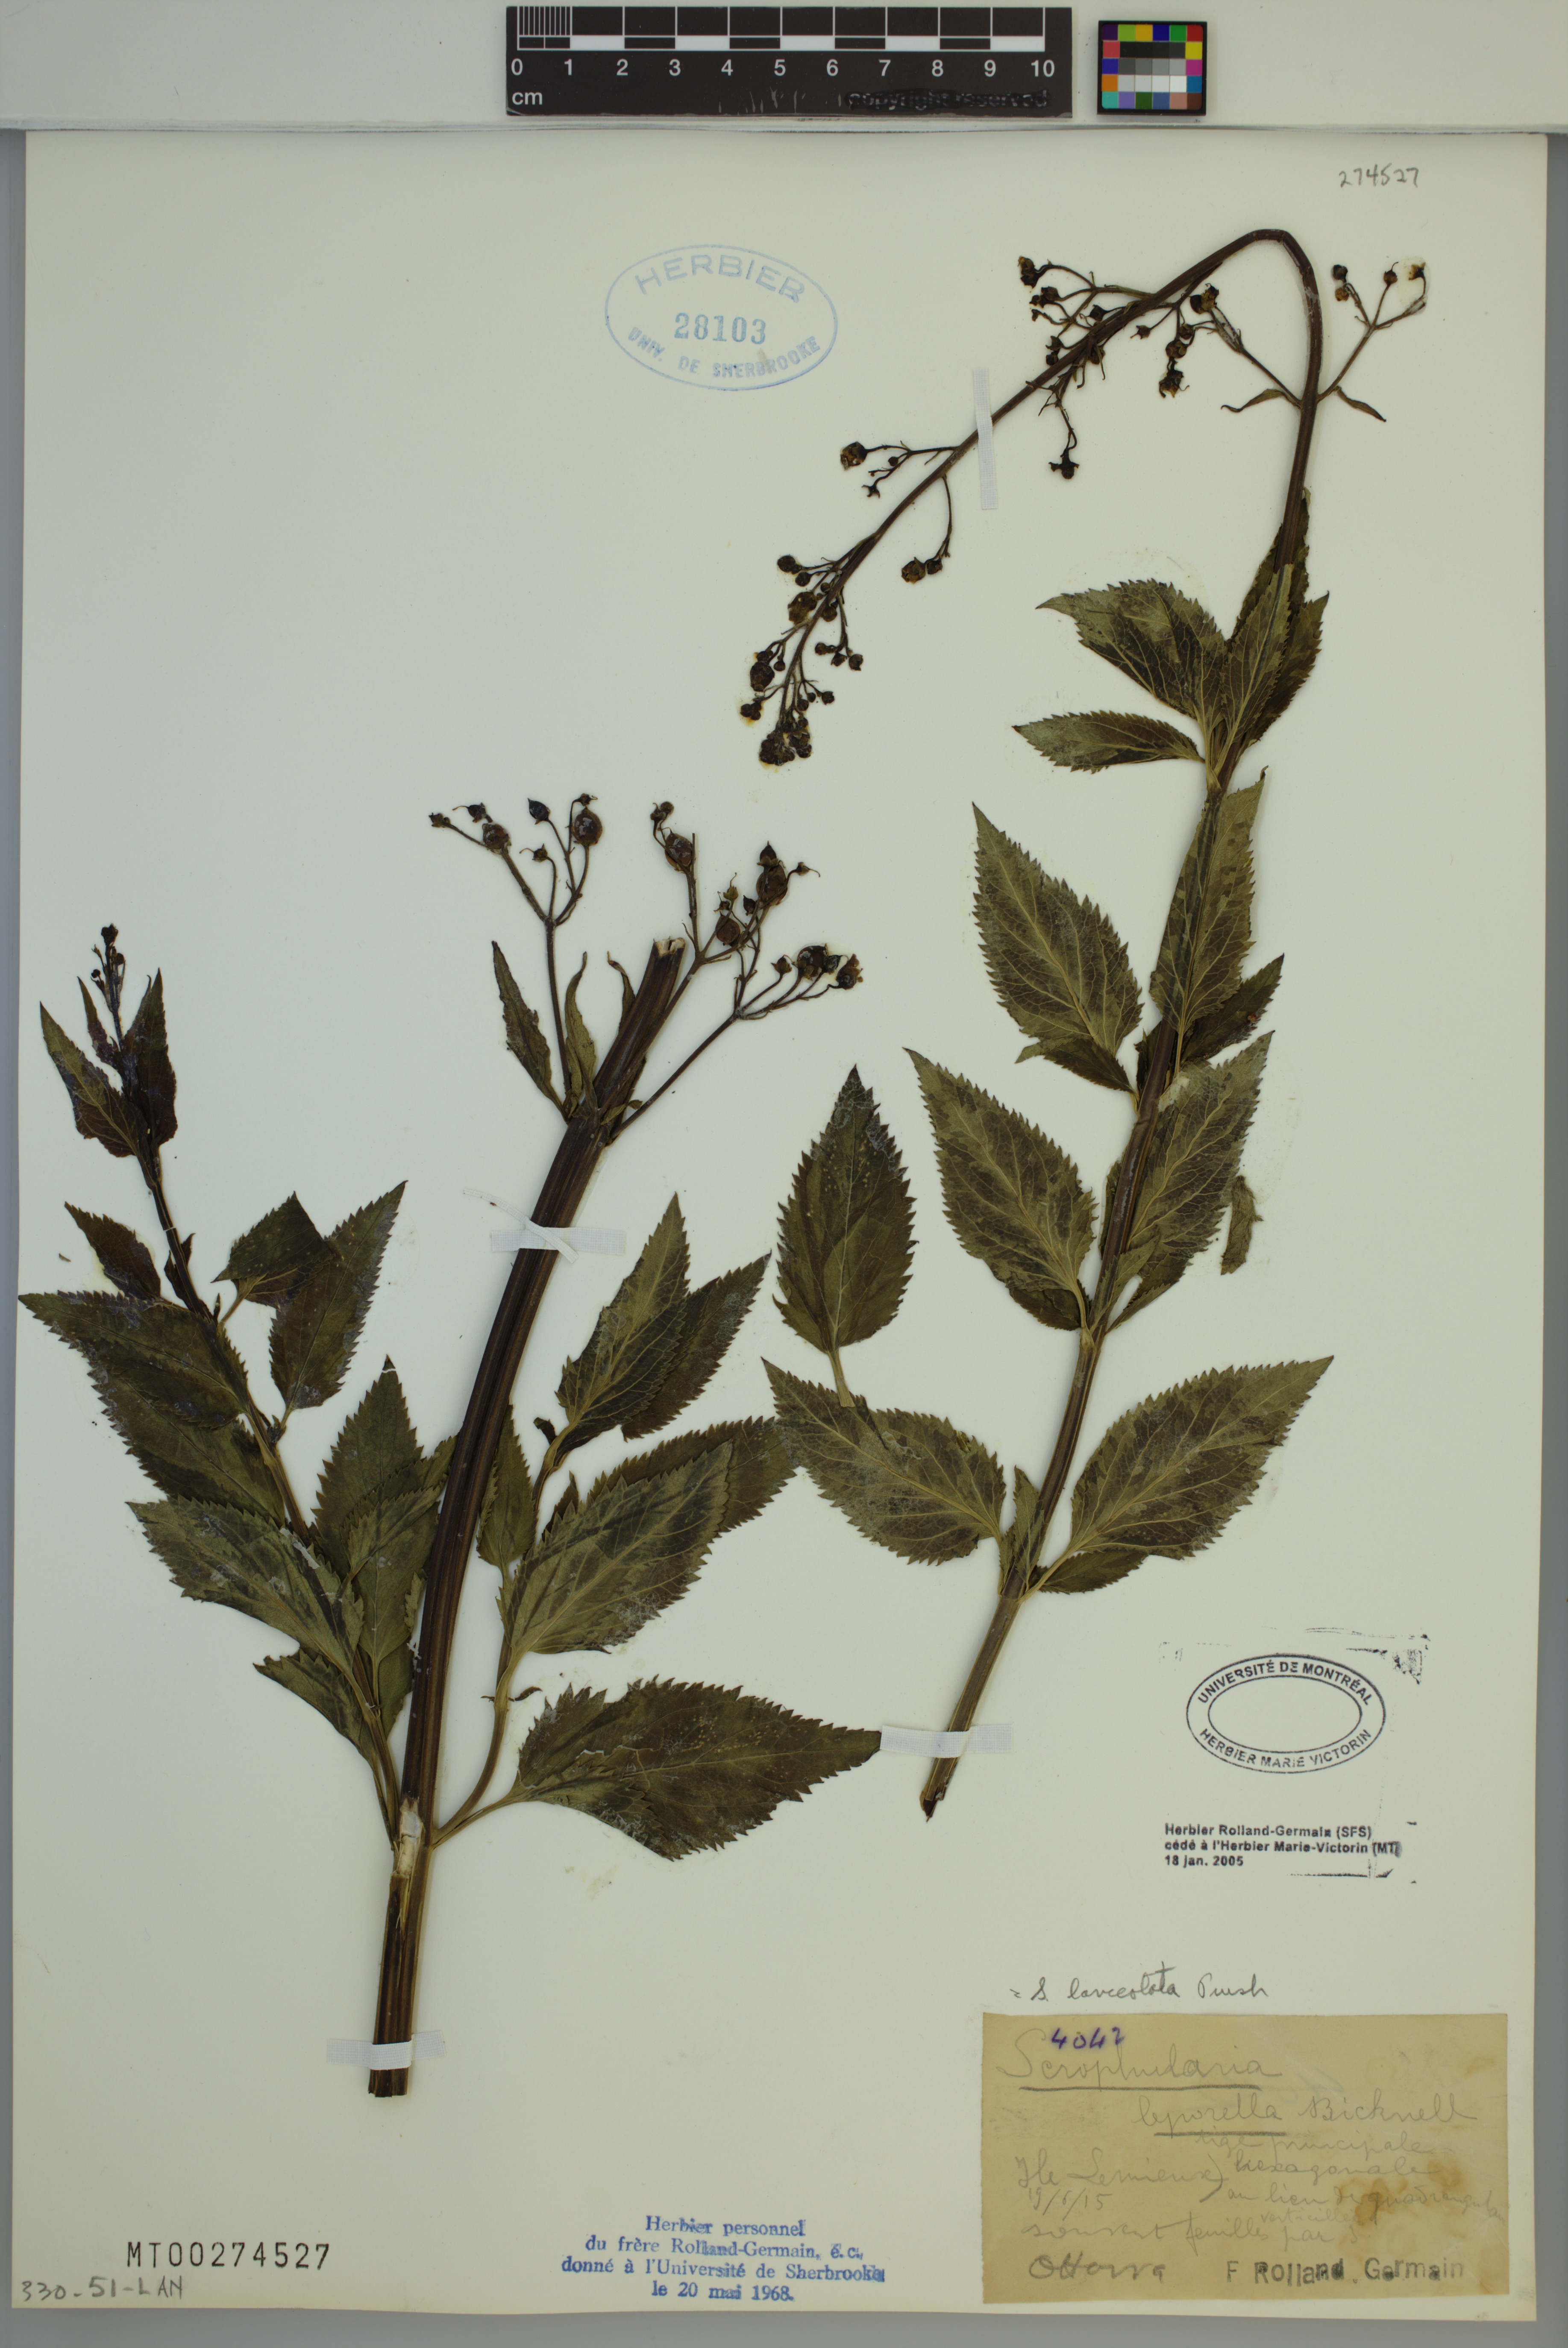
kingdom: Plantae
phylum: Tracheophyta
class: Magnoliopsida
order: Lamiales
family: Scrophulariaceae
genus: Scrophularia
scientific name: Scrophularia lanceolata
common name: American figwort
